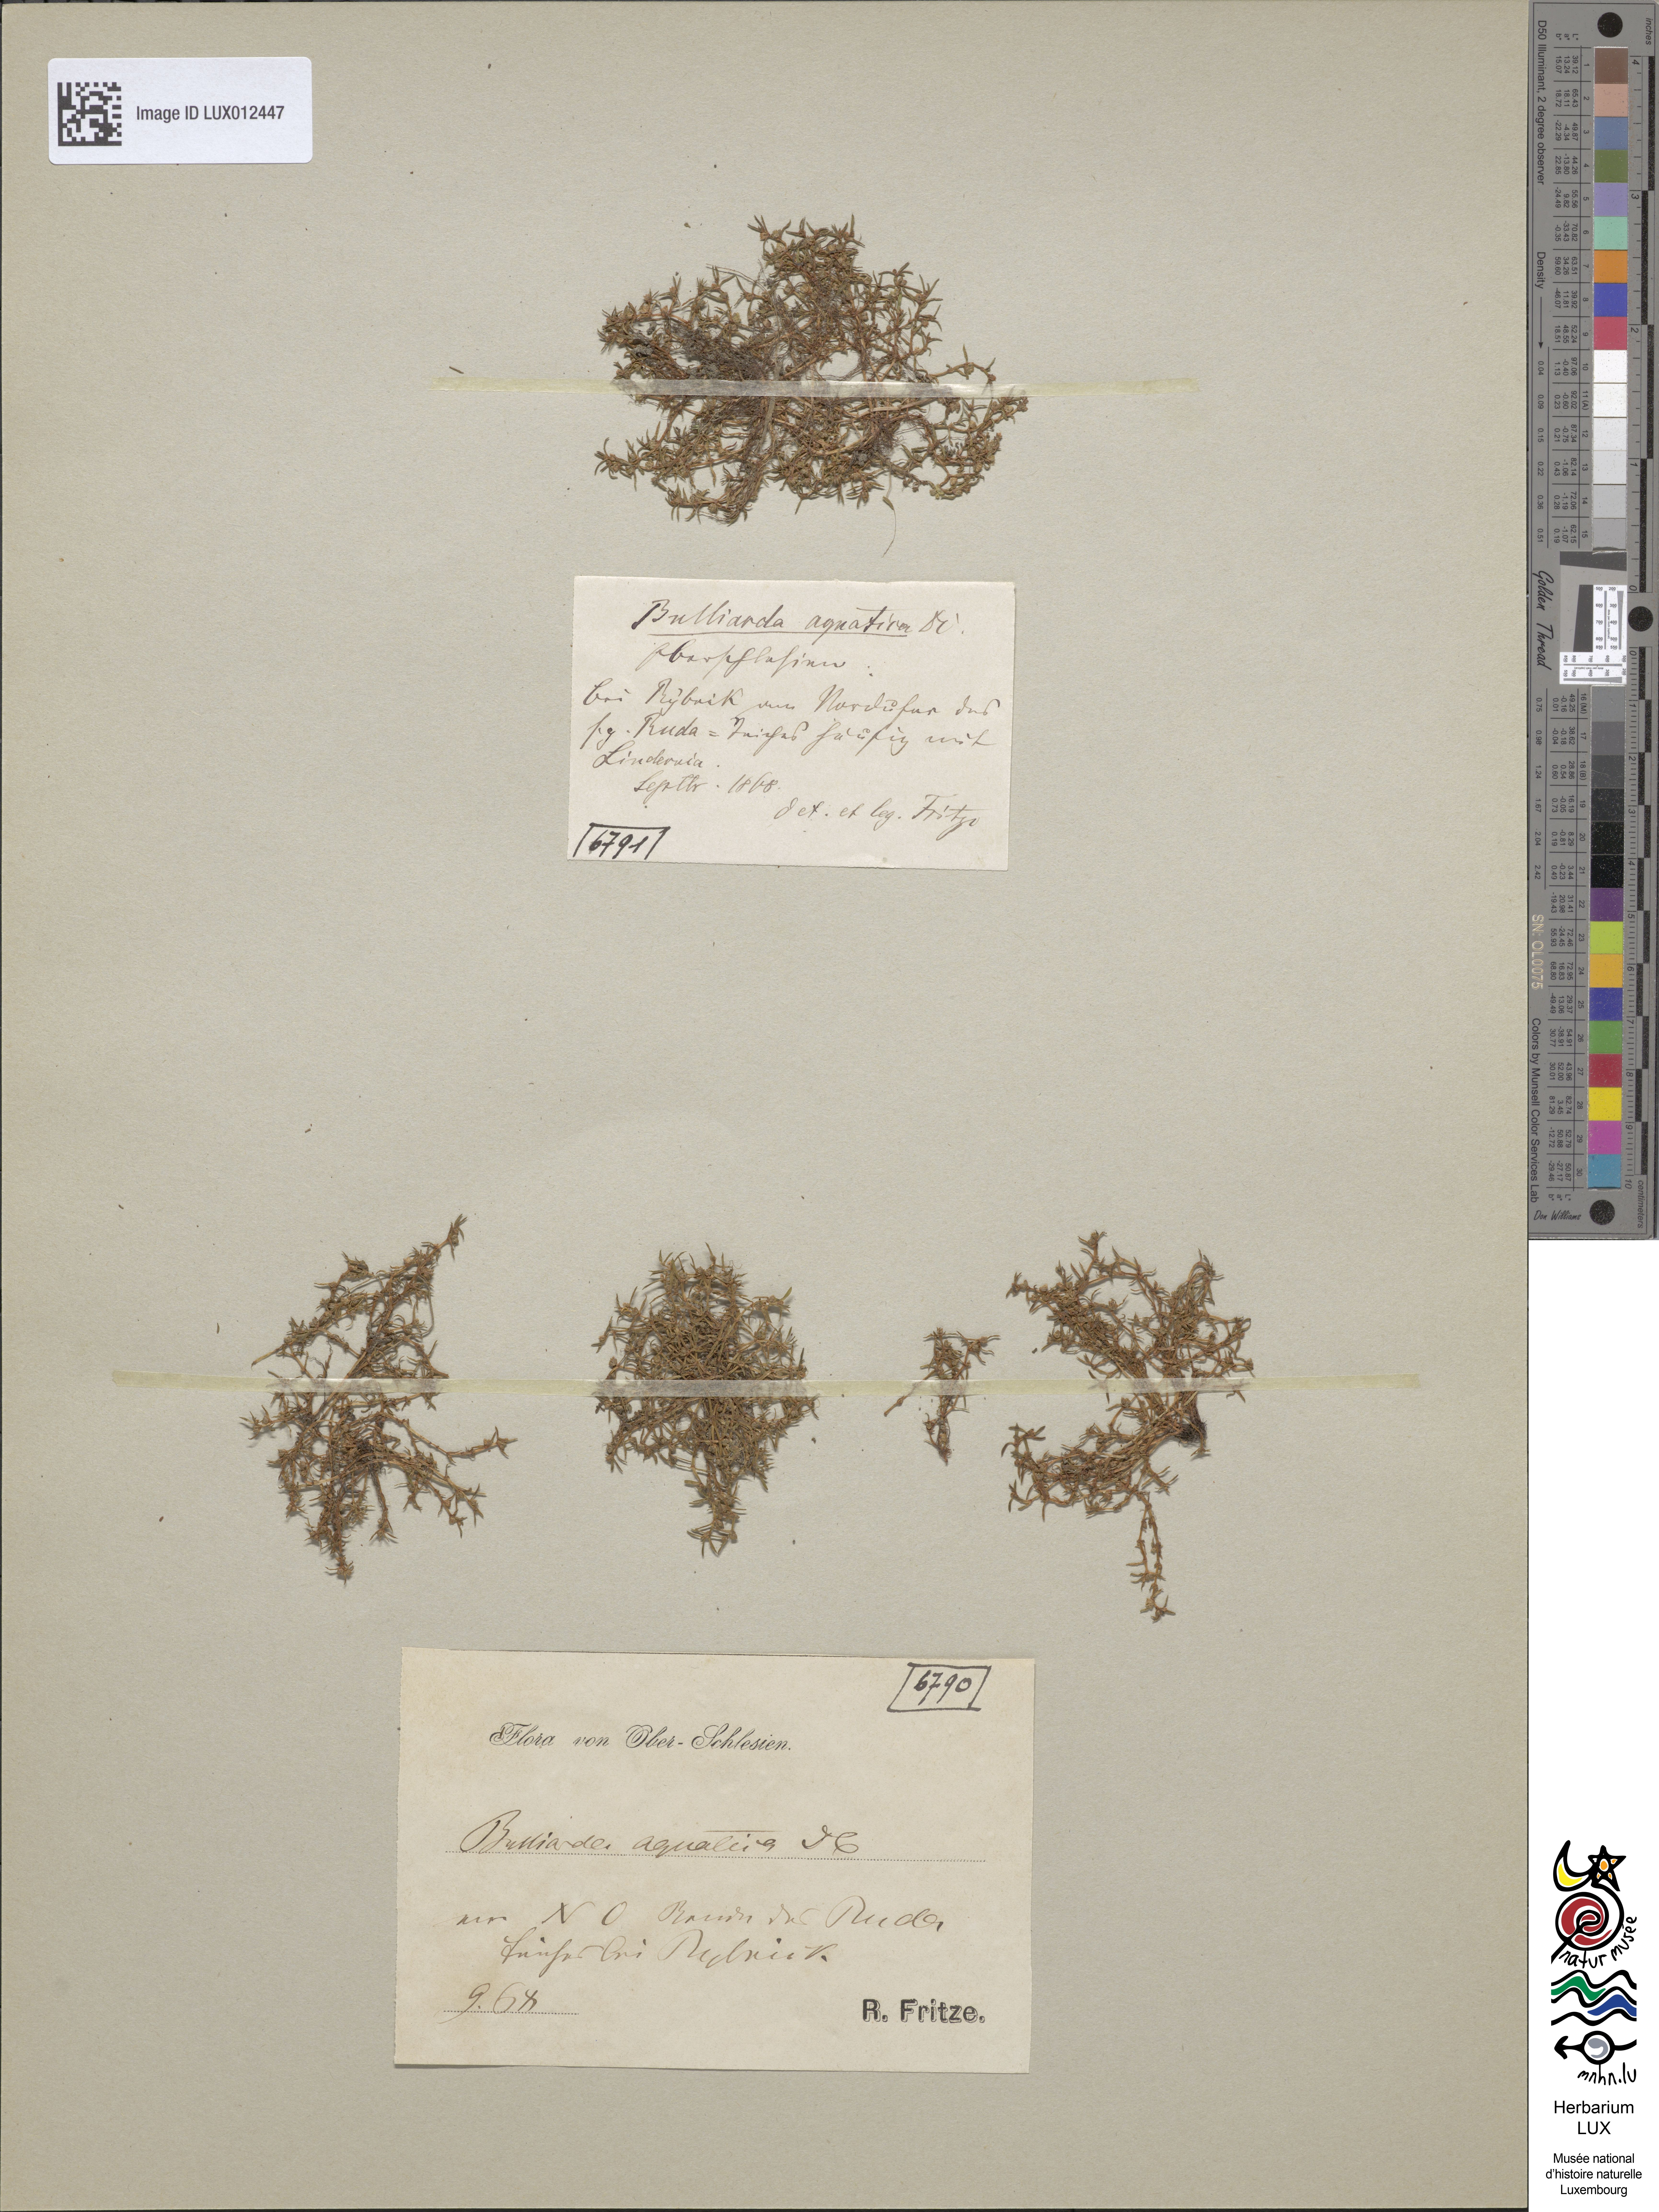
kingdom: Plantae
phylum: Tracheophyta
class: Magnoliopsida
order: Saxifragales
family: Crassulaceae
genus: Crassula
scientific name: Crassula aquatica
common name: Pigmyweed
